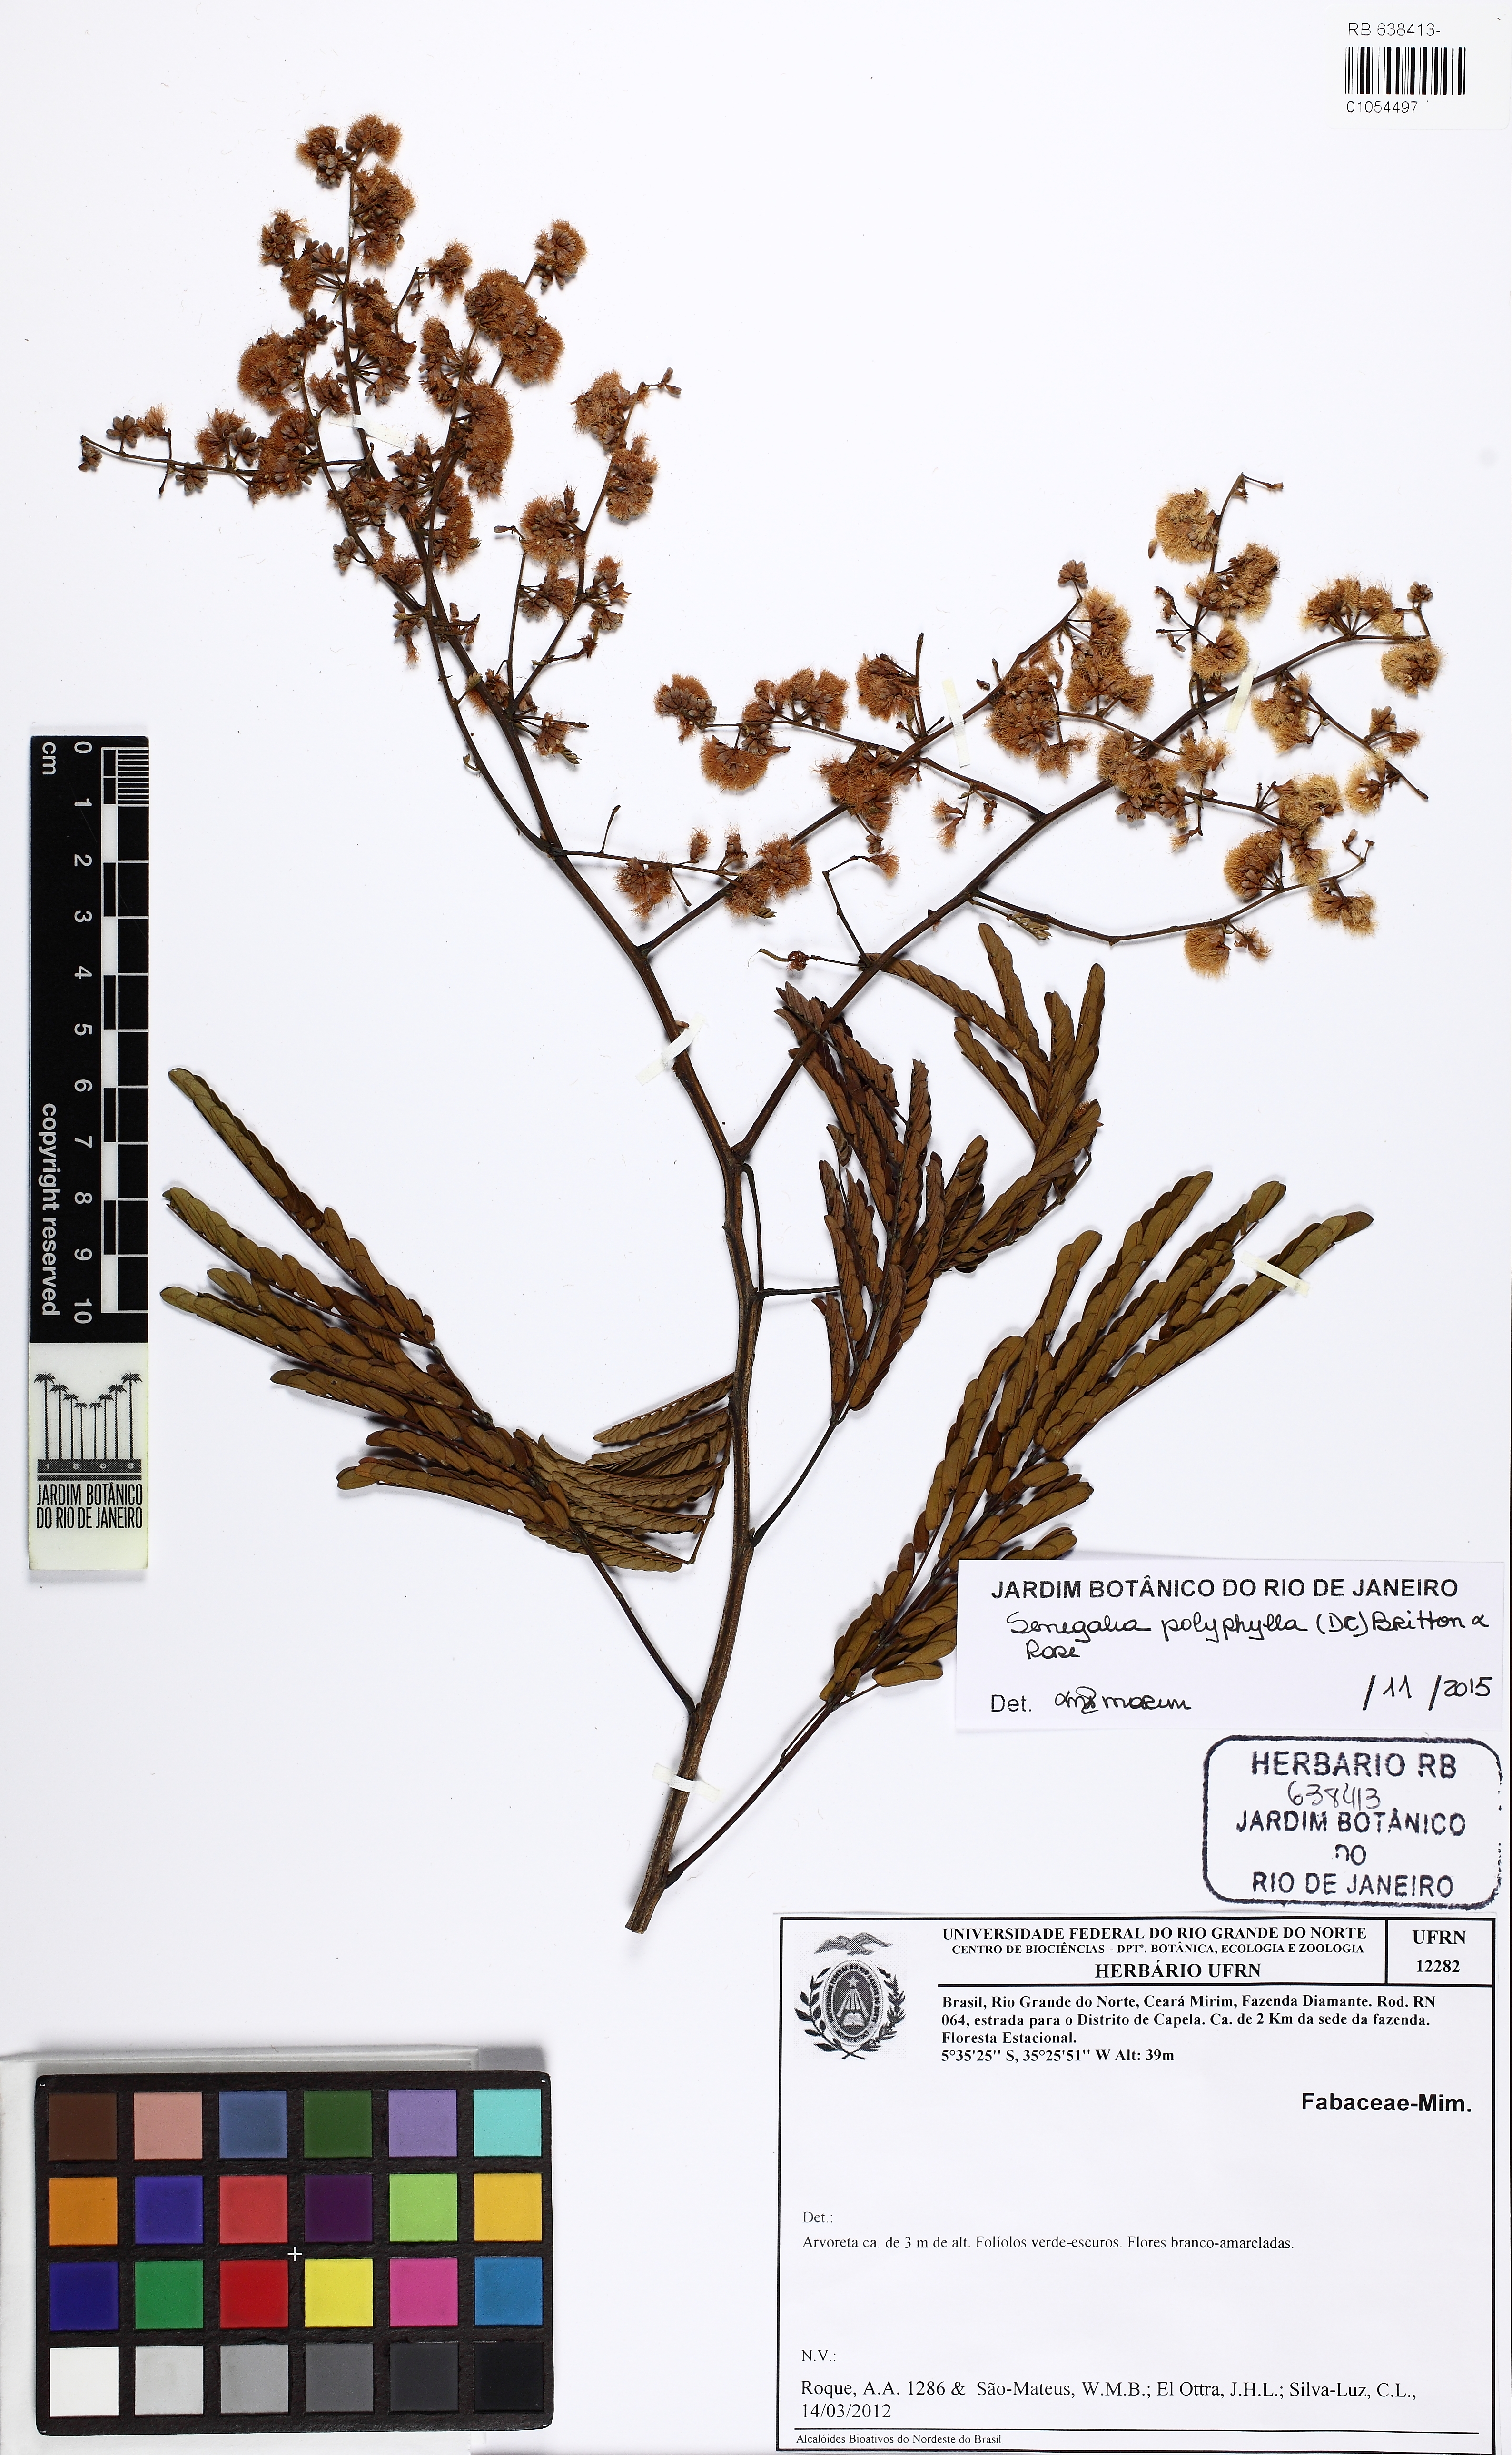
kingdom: Plantae
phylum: Tracheophyta
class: Magnoliopsida
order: Fabales
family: Fabaceae
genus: Senegalia
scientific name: Senegalia polyphylla
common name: White-tamarind
